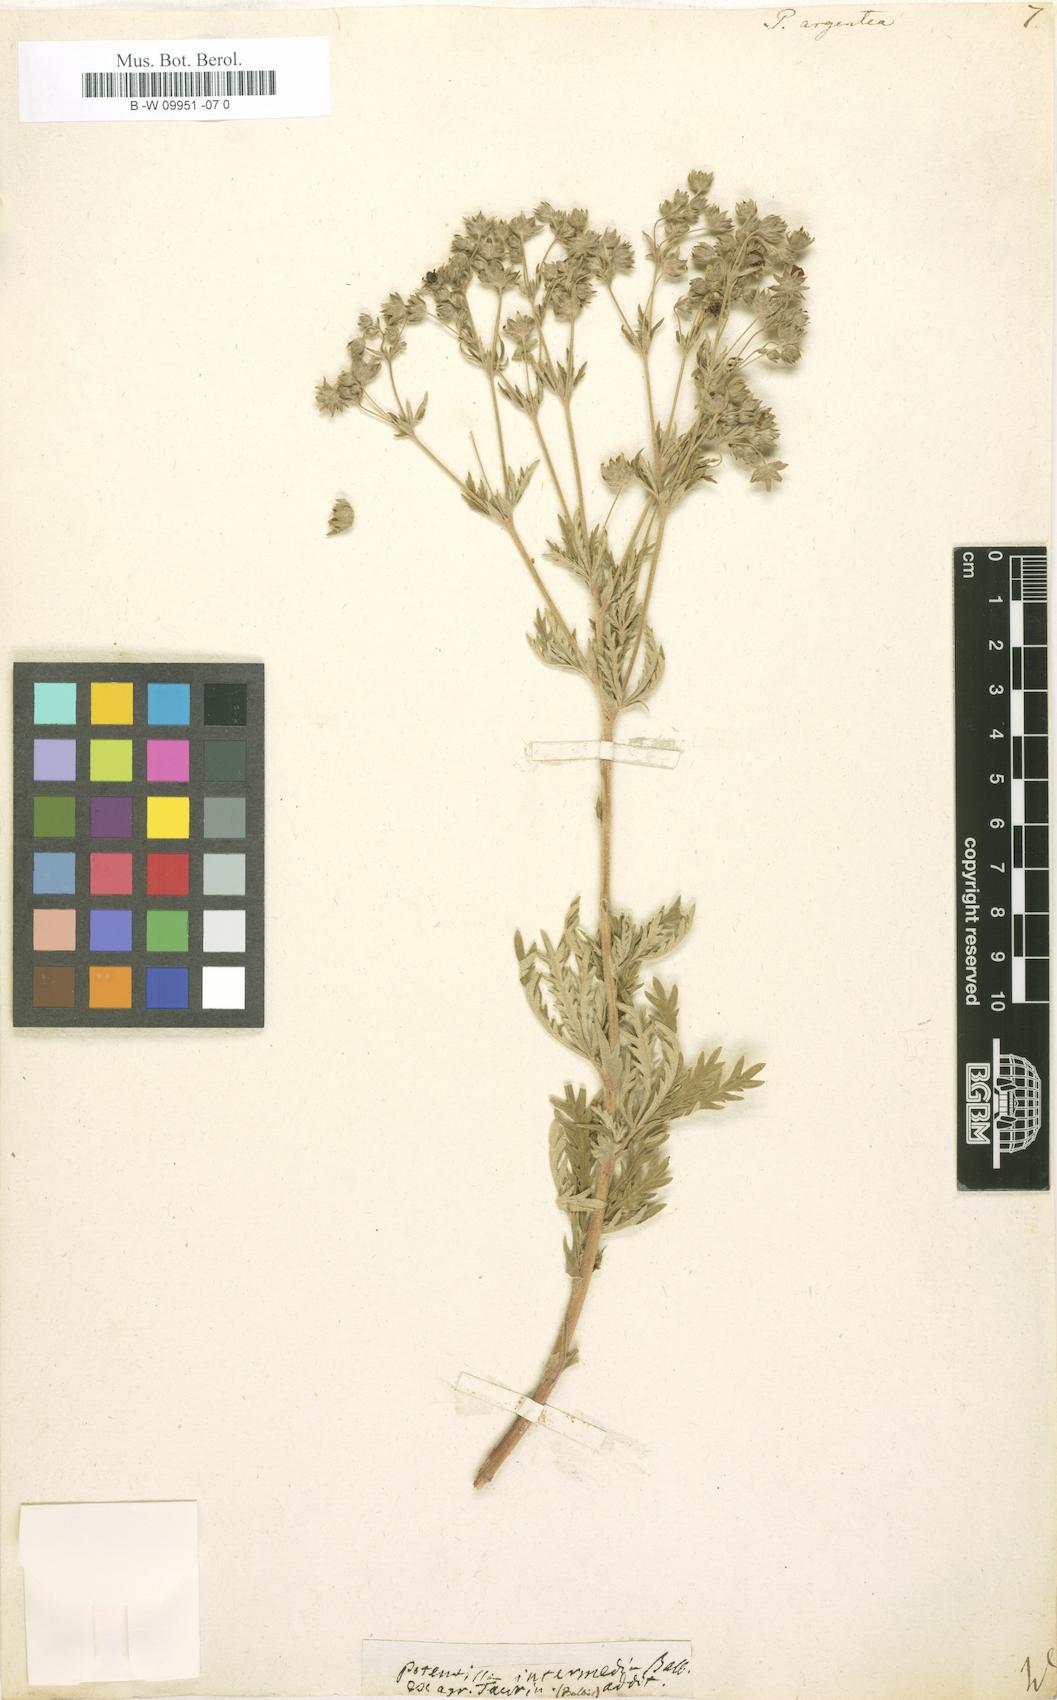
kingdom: Plantae
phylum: Tracheophyta
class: Magnoliopsida
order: Rosales
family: Rosaceae
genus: Potentilla
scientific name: Potentilla argentea
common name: Hoary cinquefoil
